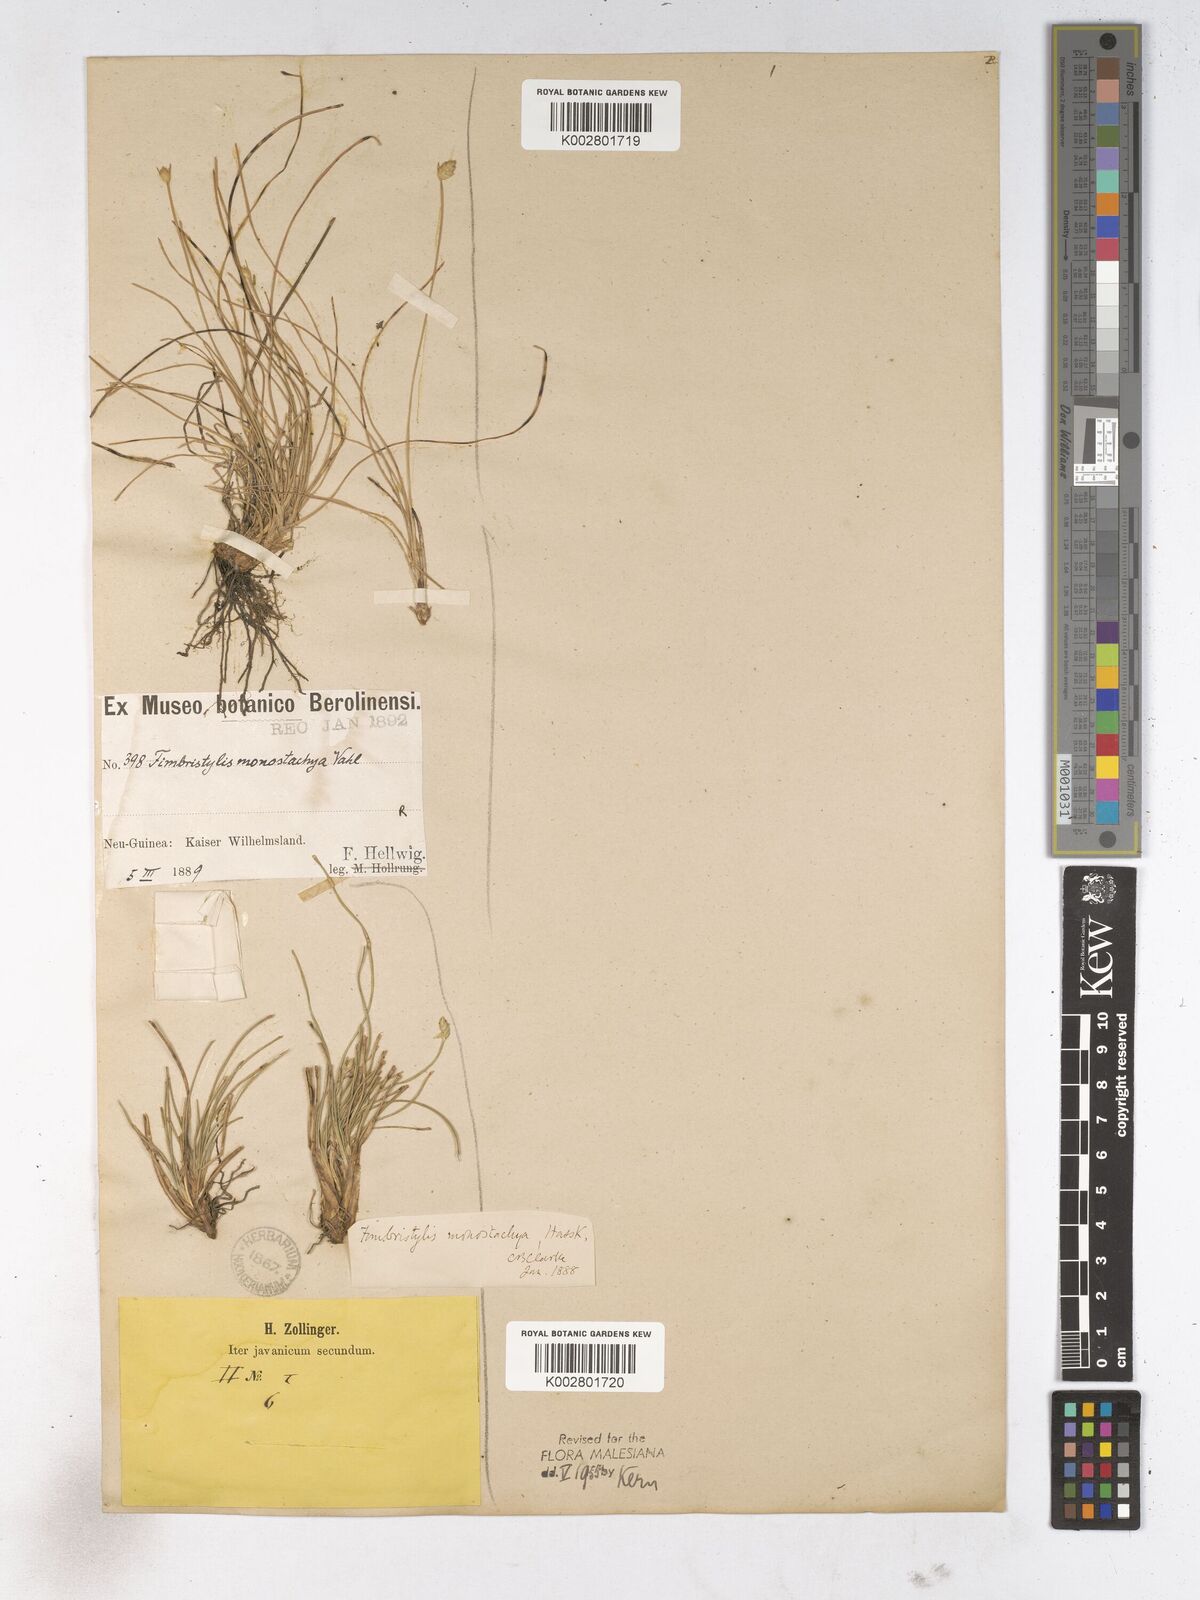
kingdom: Plantae
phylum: Tracheophyta
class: Liliopsida
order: Poales
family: Cyperaceae
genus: Abildgaardia
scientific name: Abildgaardia ovata
